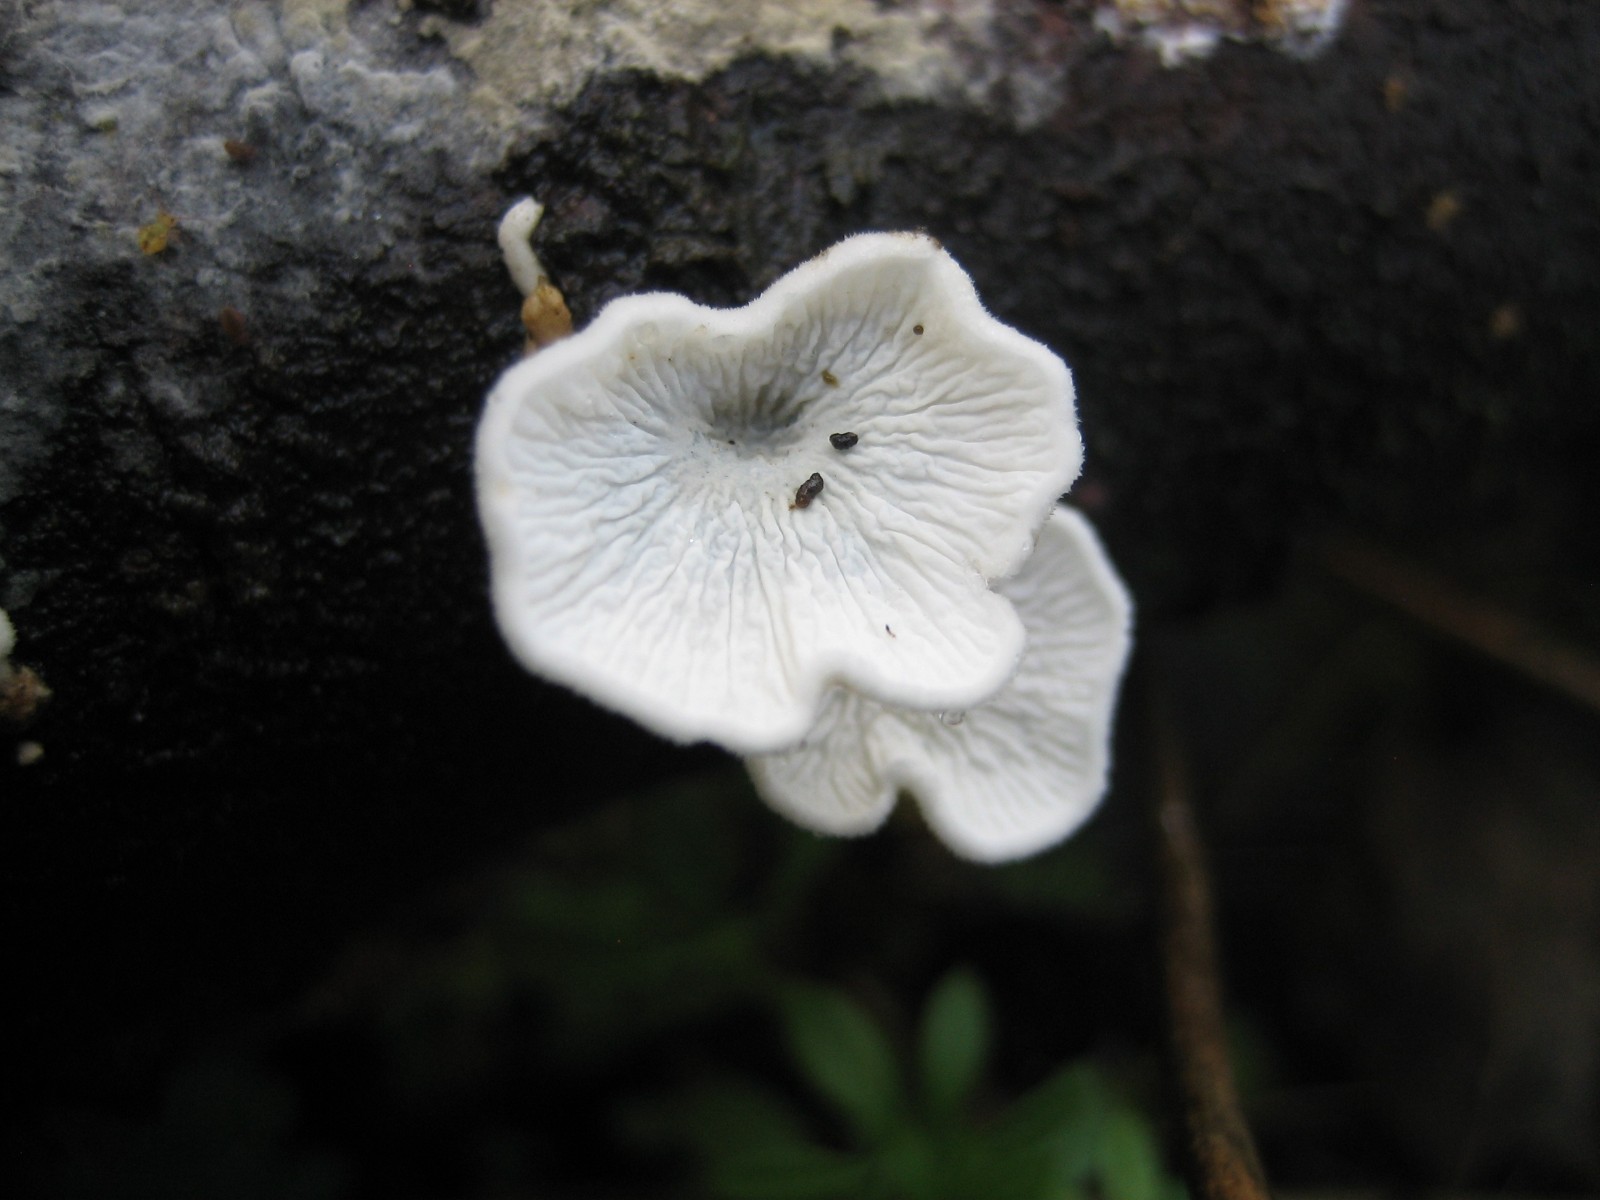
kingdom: Fungi
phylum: Basidiomycota
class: Agaricomycetes
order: Amylocorticiales
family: Amylocorticiaceae
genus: Plicaturopsis
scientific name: Plicaturopsis crispa
